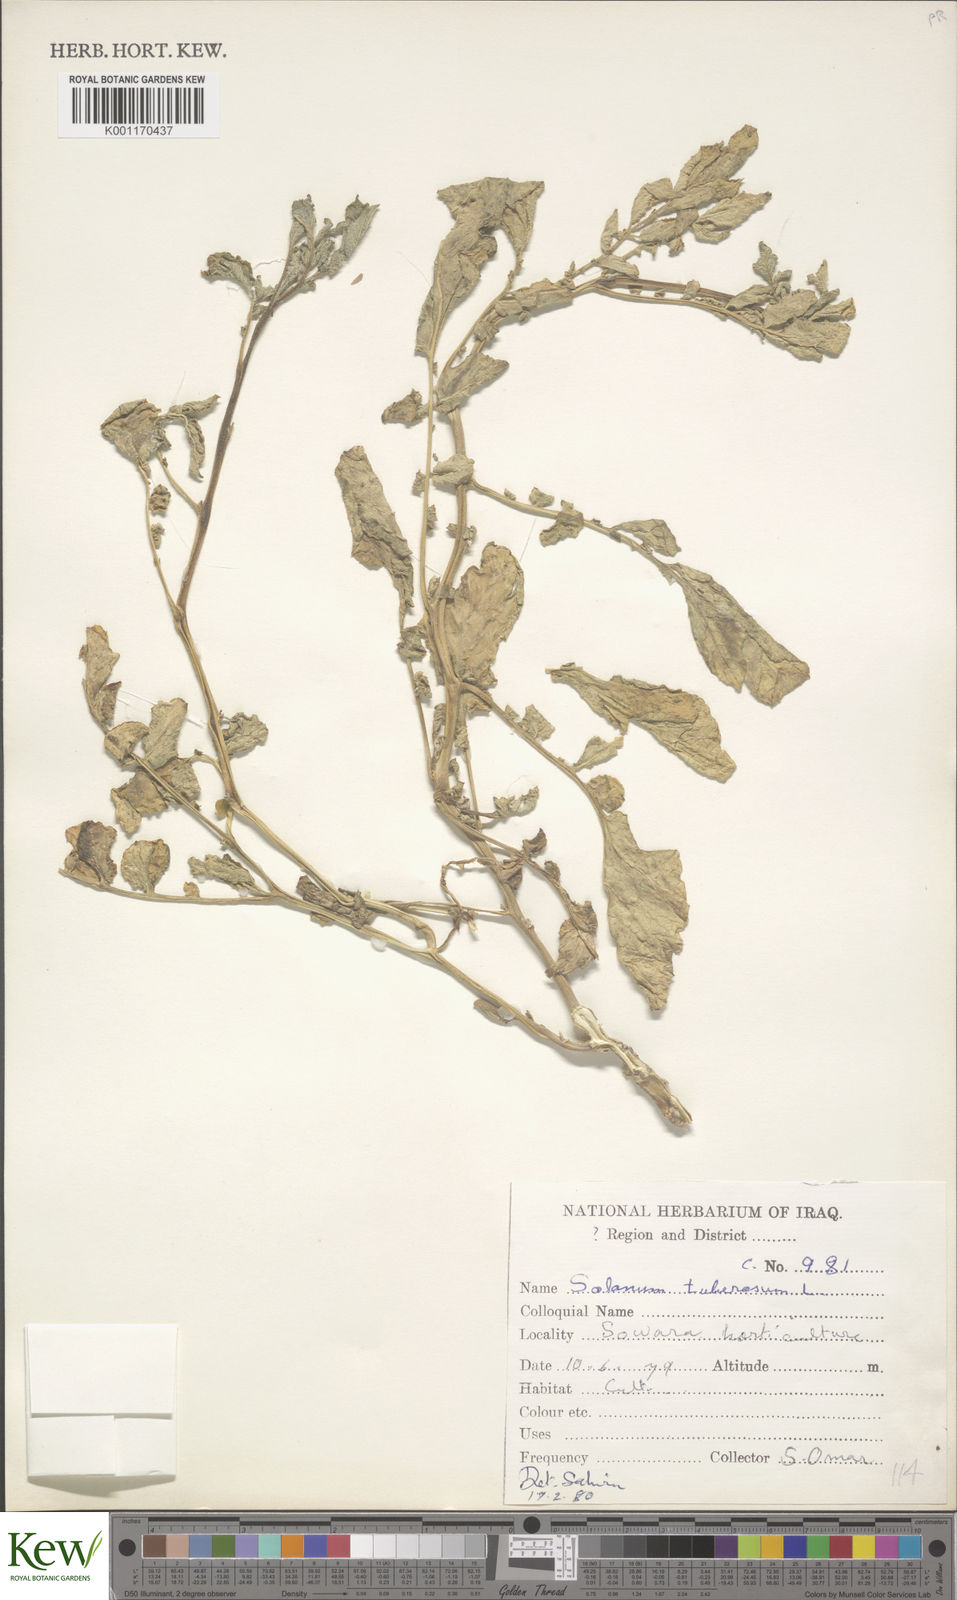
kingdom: Plantae
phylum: Tracheophyta
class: Magnoliopsida
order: Solanales
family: Solanaceae
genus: Solanum
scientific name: Solanum tuberosum
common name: Potato
